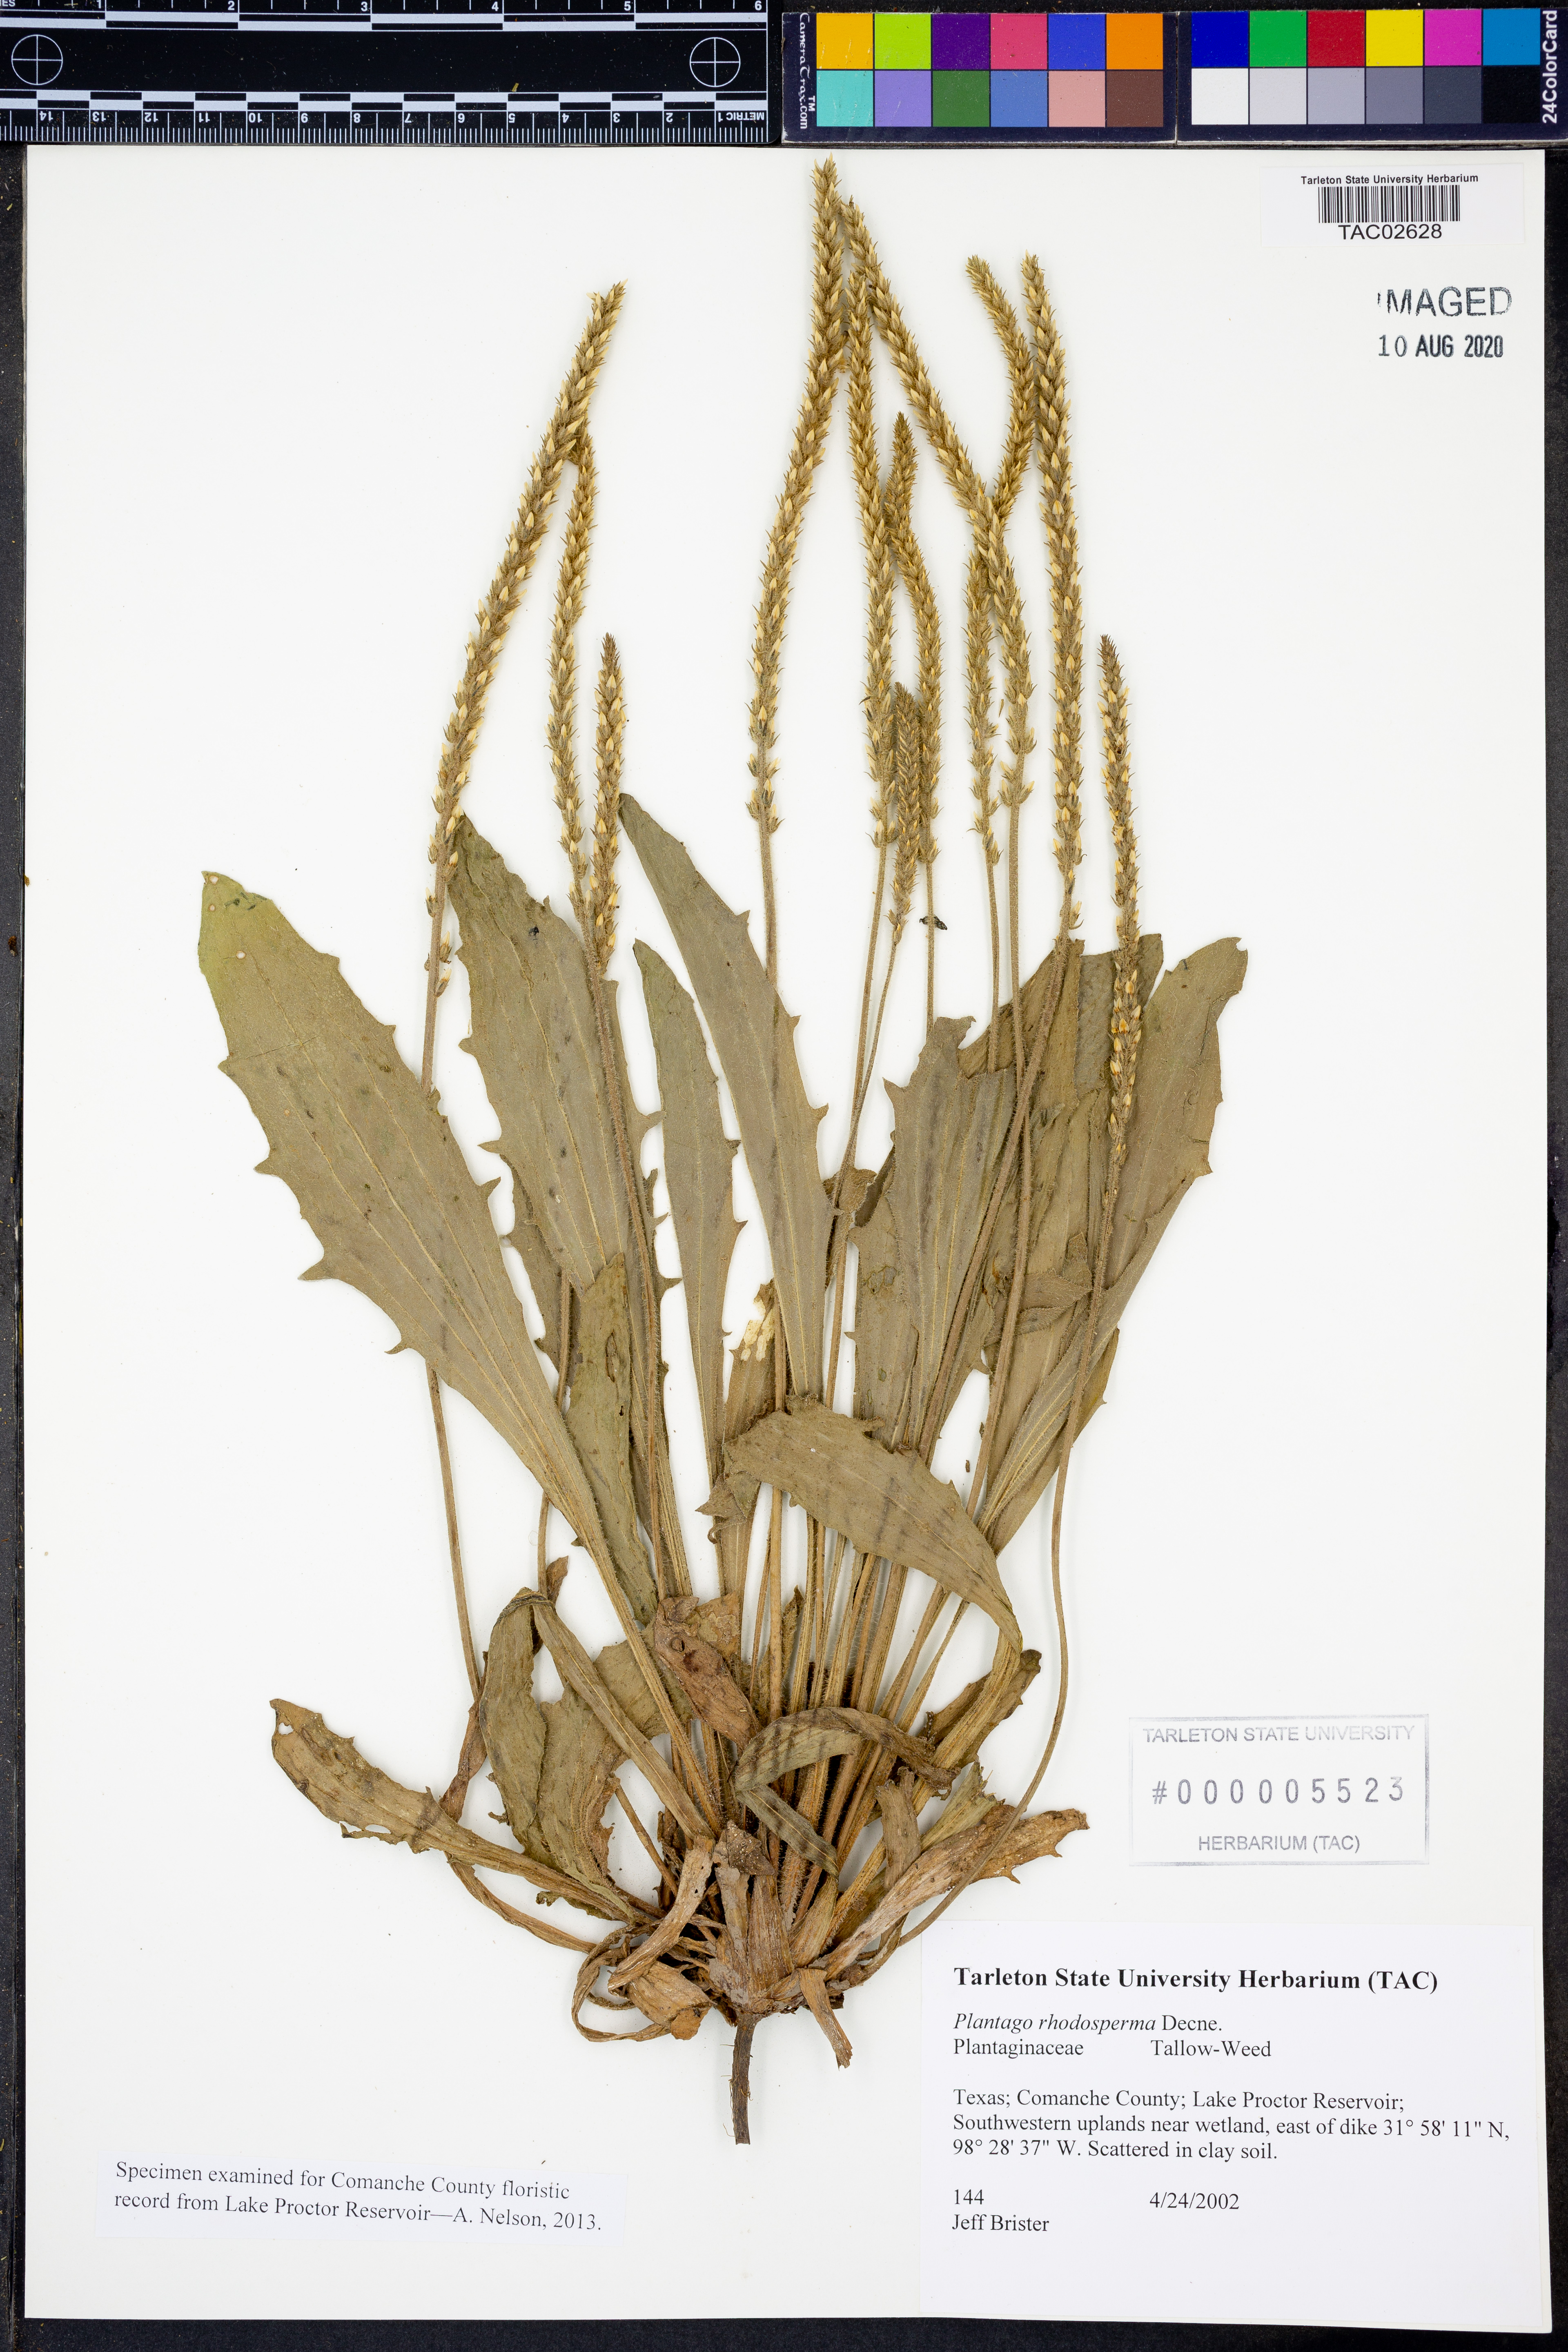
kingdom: Plantae
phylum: Tracheophyta
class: Magnoliopsida
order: Lamiales
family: Plantaginaceae
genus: Plantago
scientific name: Plantago rhodosperma
